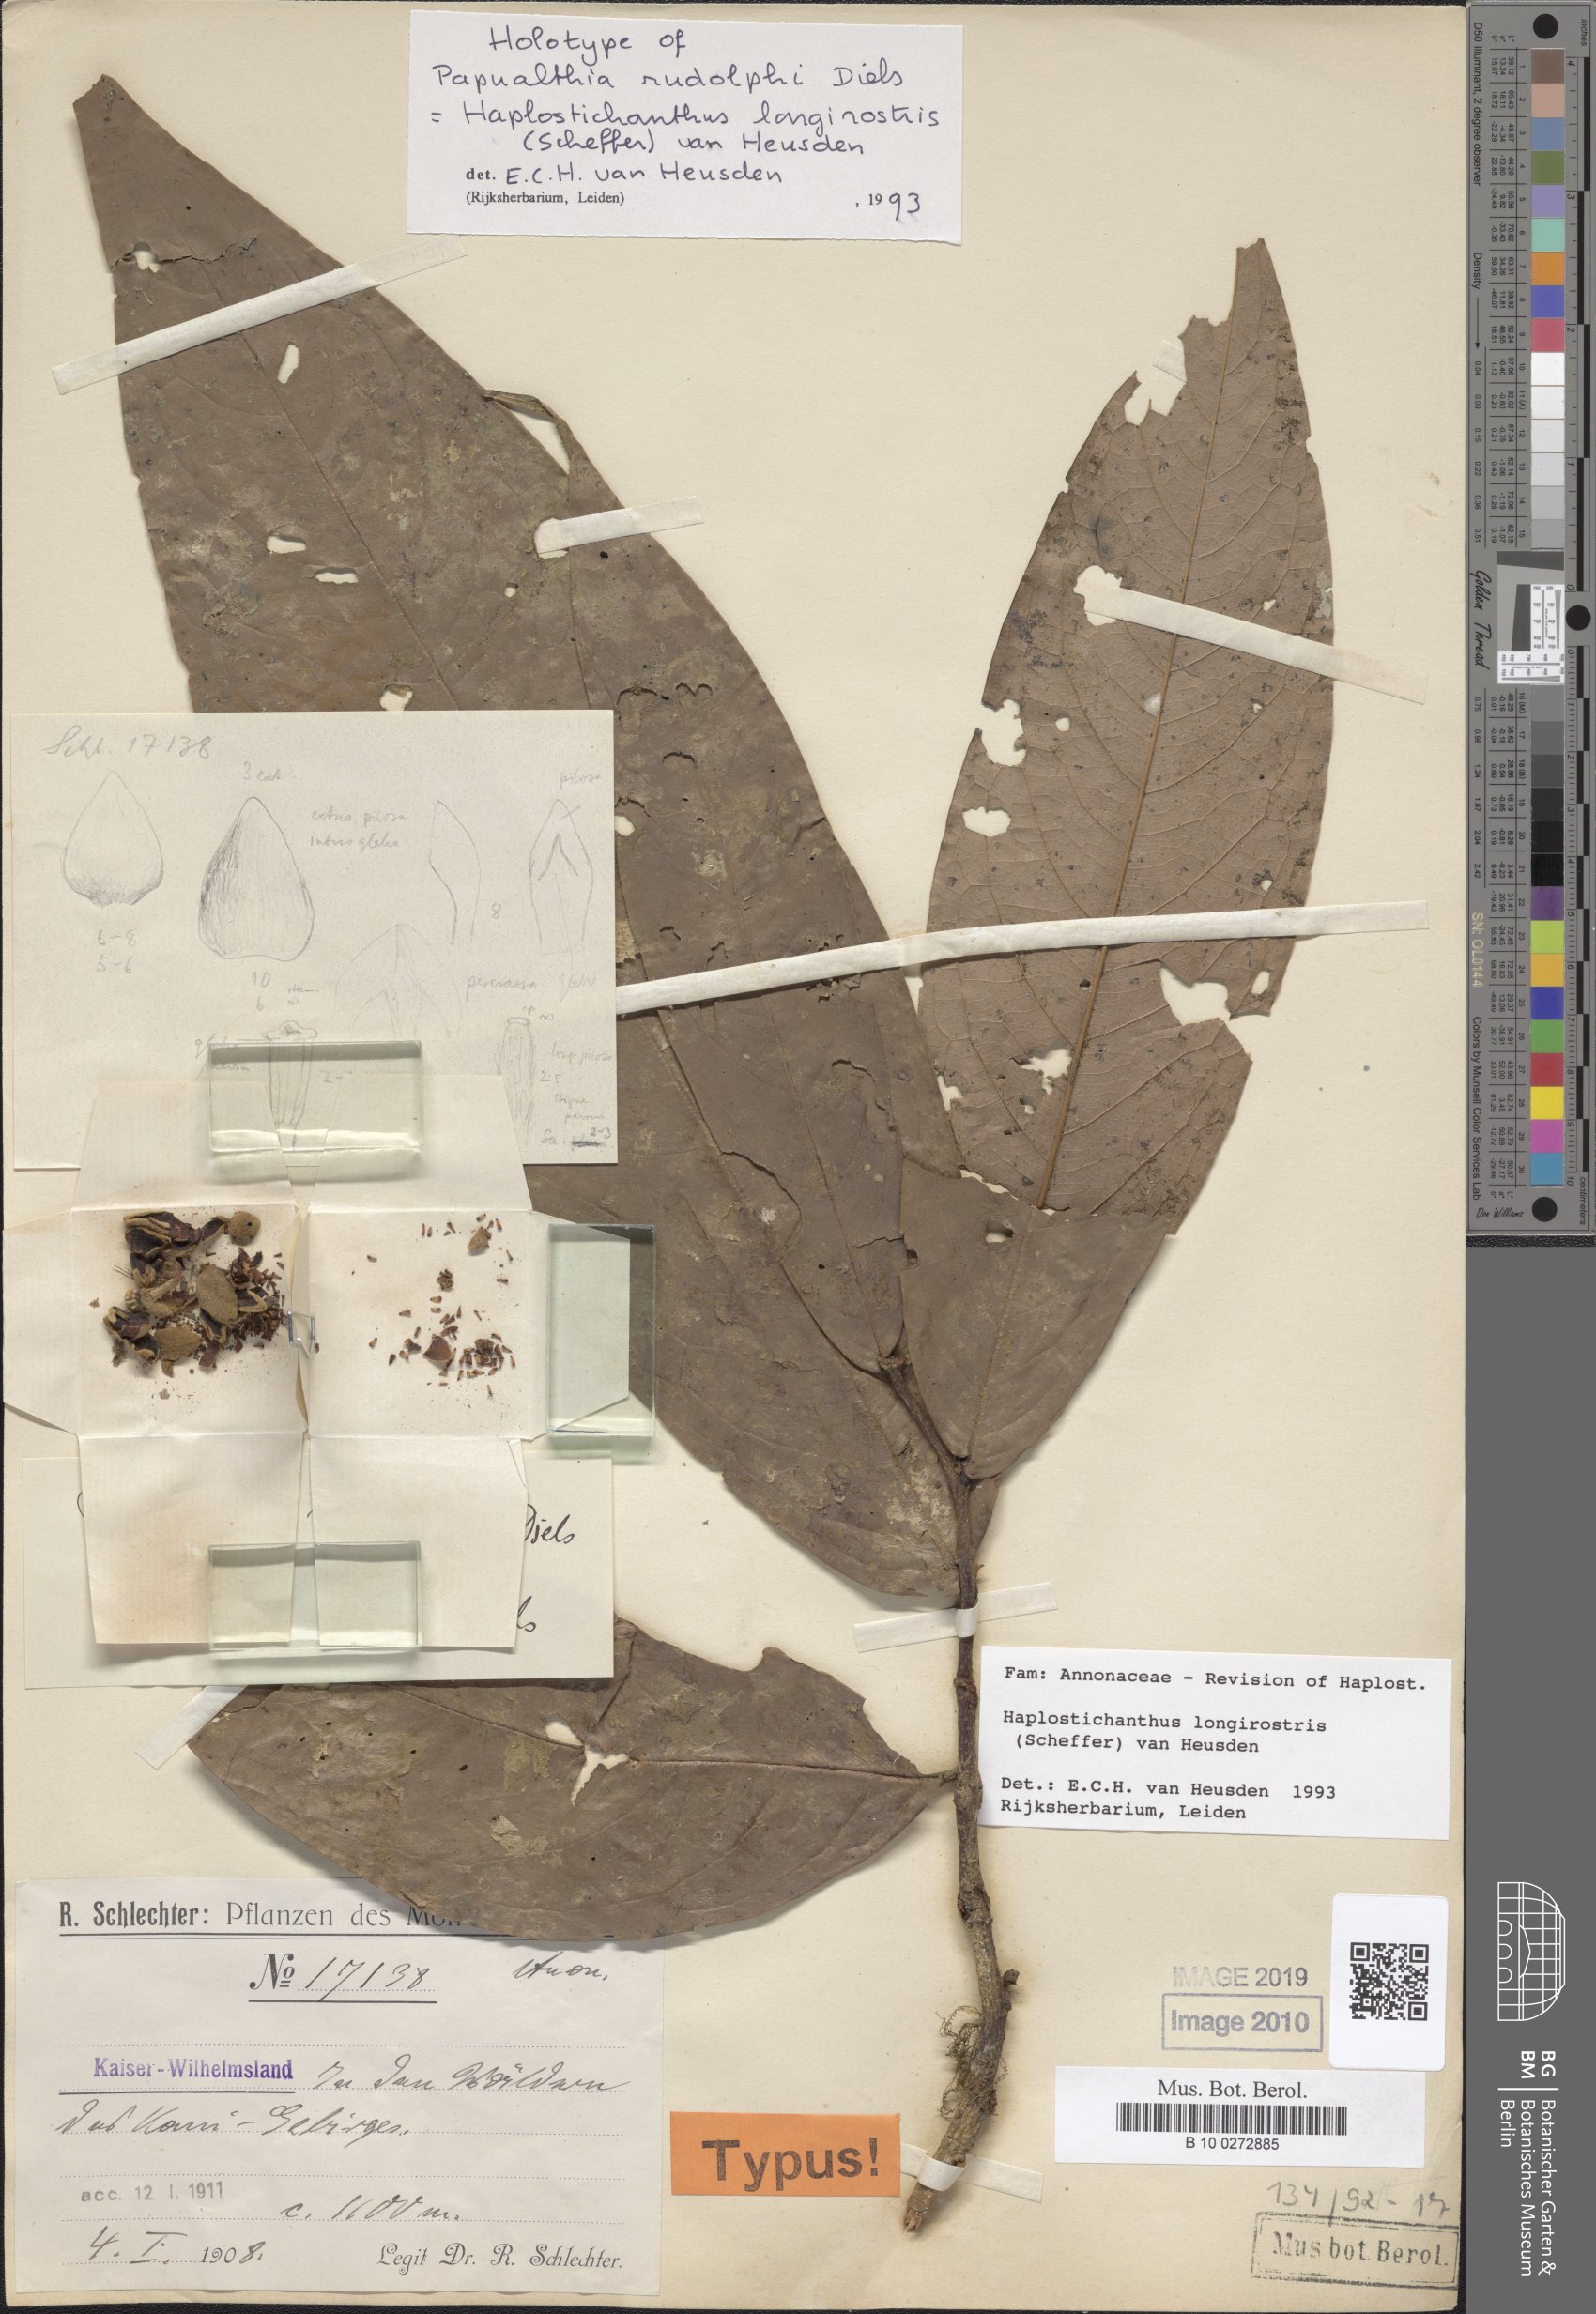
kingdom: Plantae
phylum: Tracheophyta
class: Magnoliopsida
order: Magnoliales
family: Annonaceae
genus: Haplostichanthus
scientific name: Haplostichanthus longirostris
